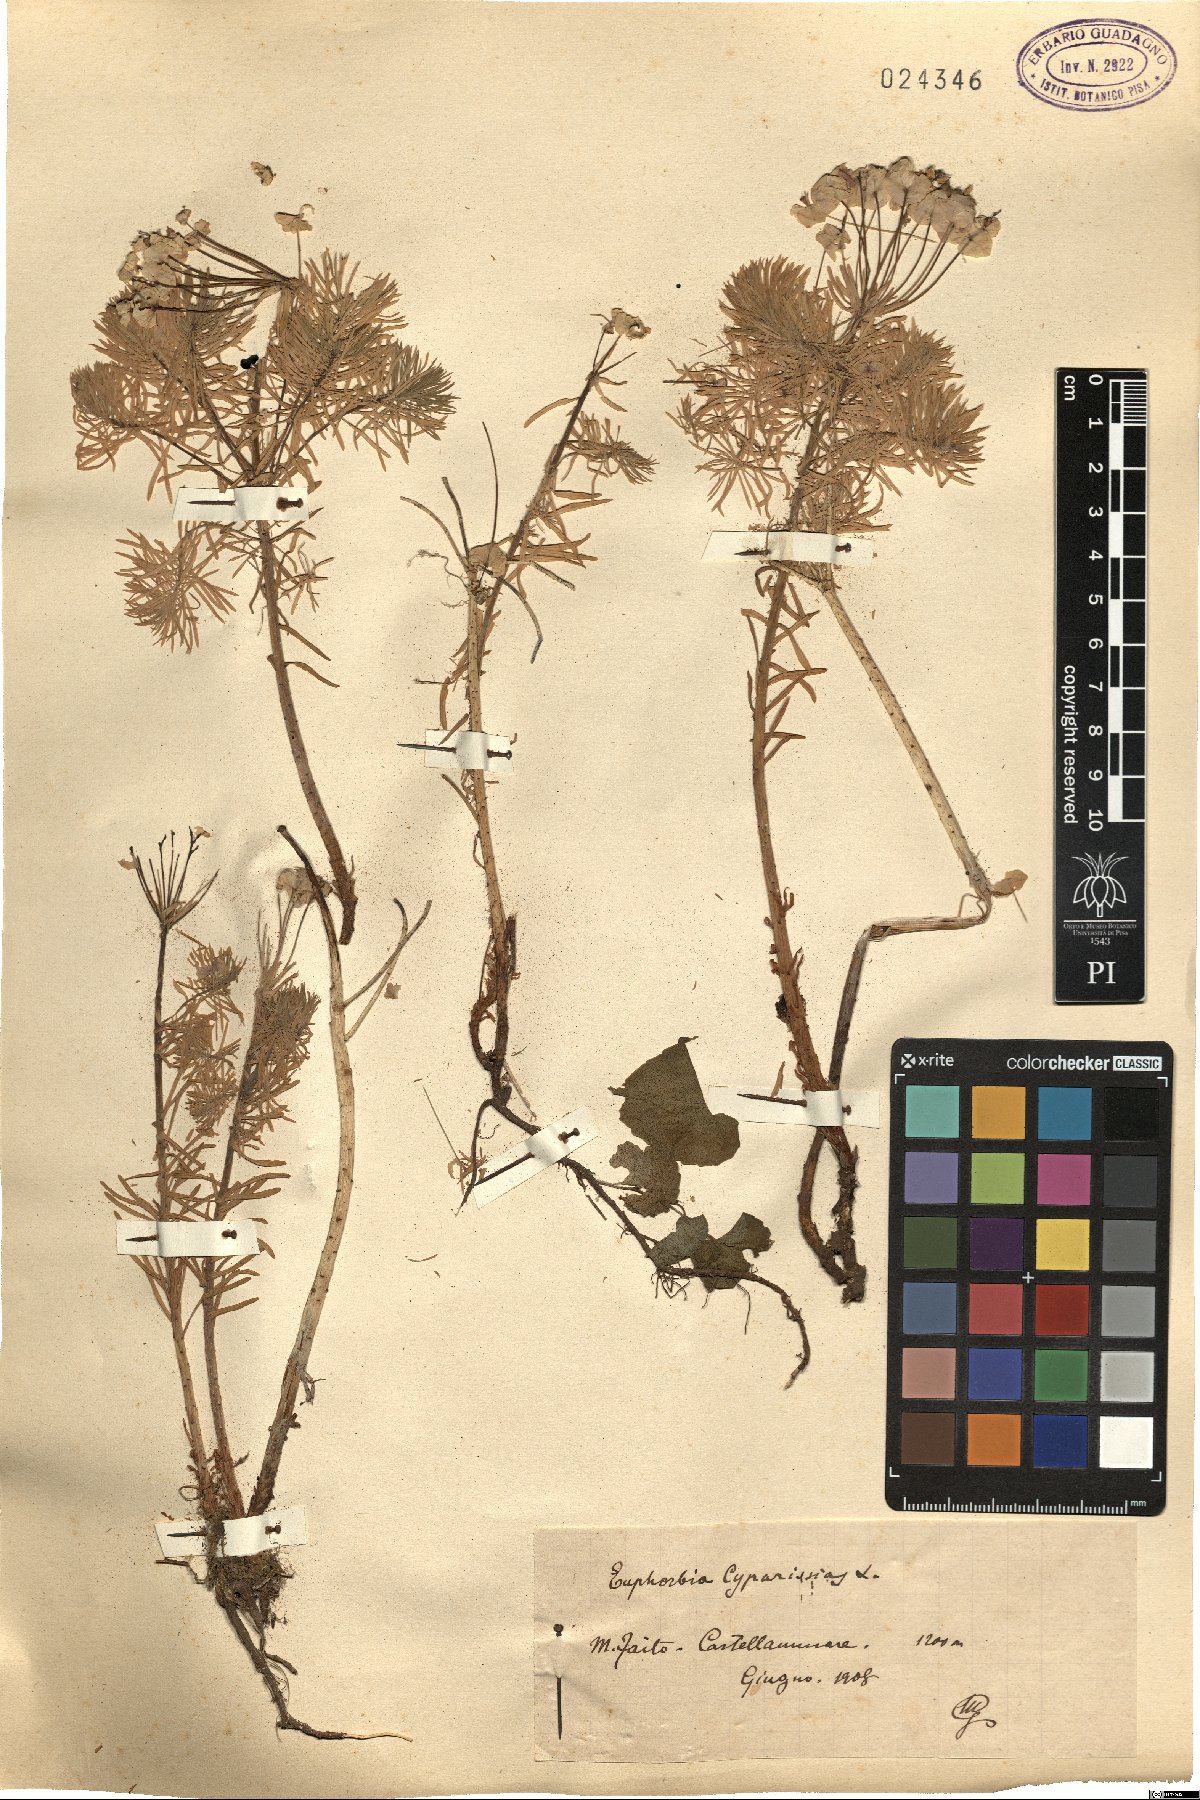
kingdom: Plantae
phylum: Tracheophyta
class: Magnoliopsida
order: Malpighiales
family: Euphorbiaceae
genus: Euphorbia
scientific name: Euphorbia cyparissias
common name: Cypress spurge
